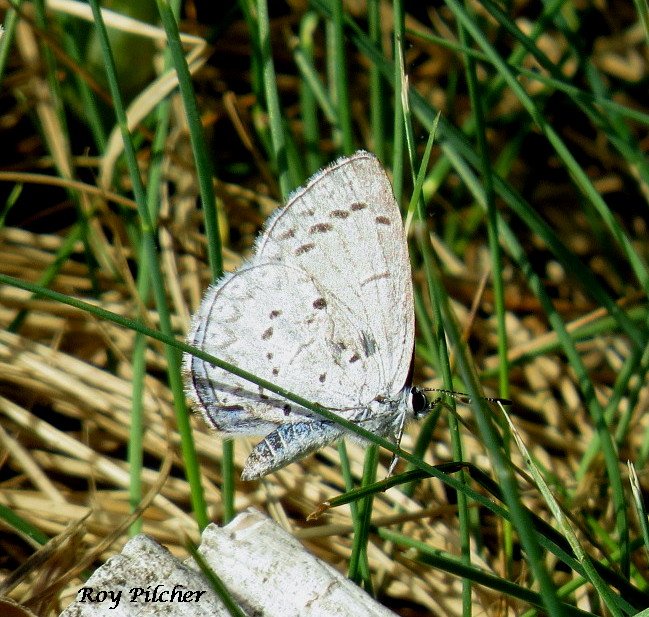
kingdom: Animalia
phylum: Arthropoda
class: Insecta
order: Lepidoptera
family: Lycaenidae
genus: Celastrina
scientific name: Celastrina lucia
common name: Northern Spring Azure
